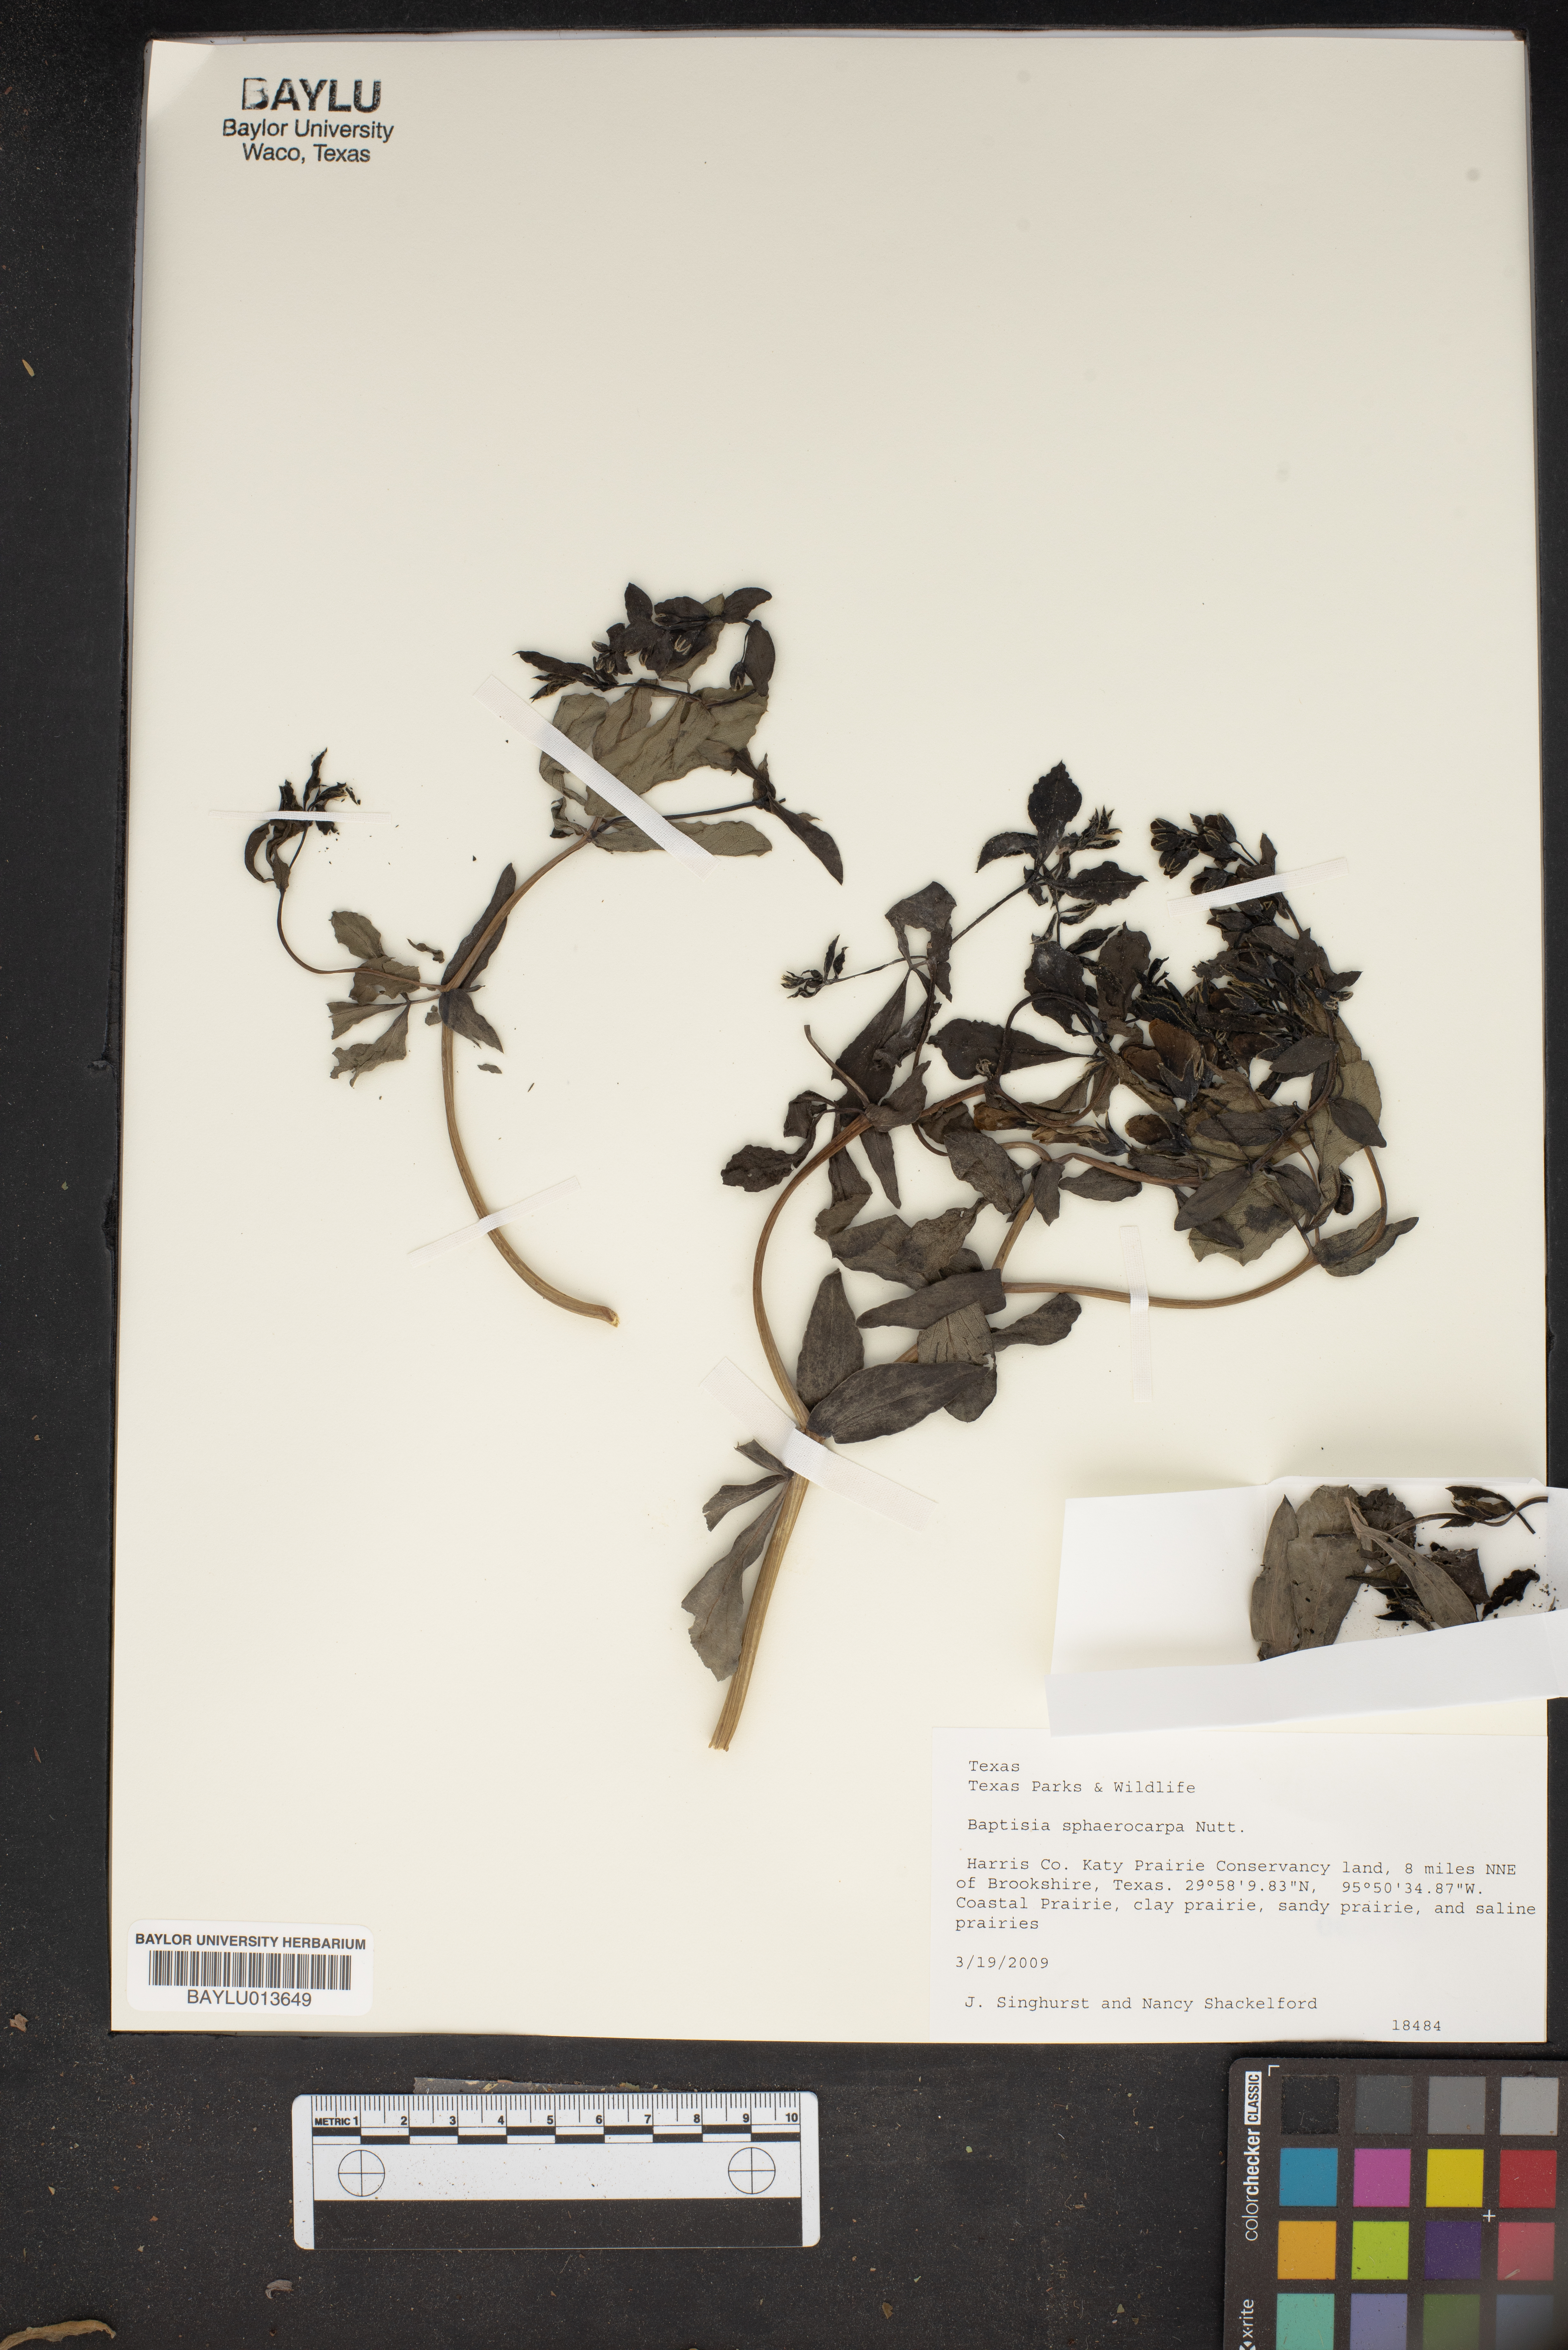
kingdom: Plantae
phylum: Tracheophyta
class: Magnoliopsida
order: Fabales
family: Fabaceae
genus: Baptisia
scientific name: Baptisia sphaerocarpa
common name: Round wild indigo
